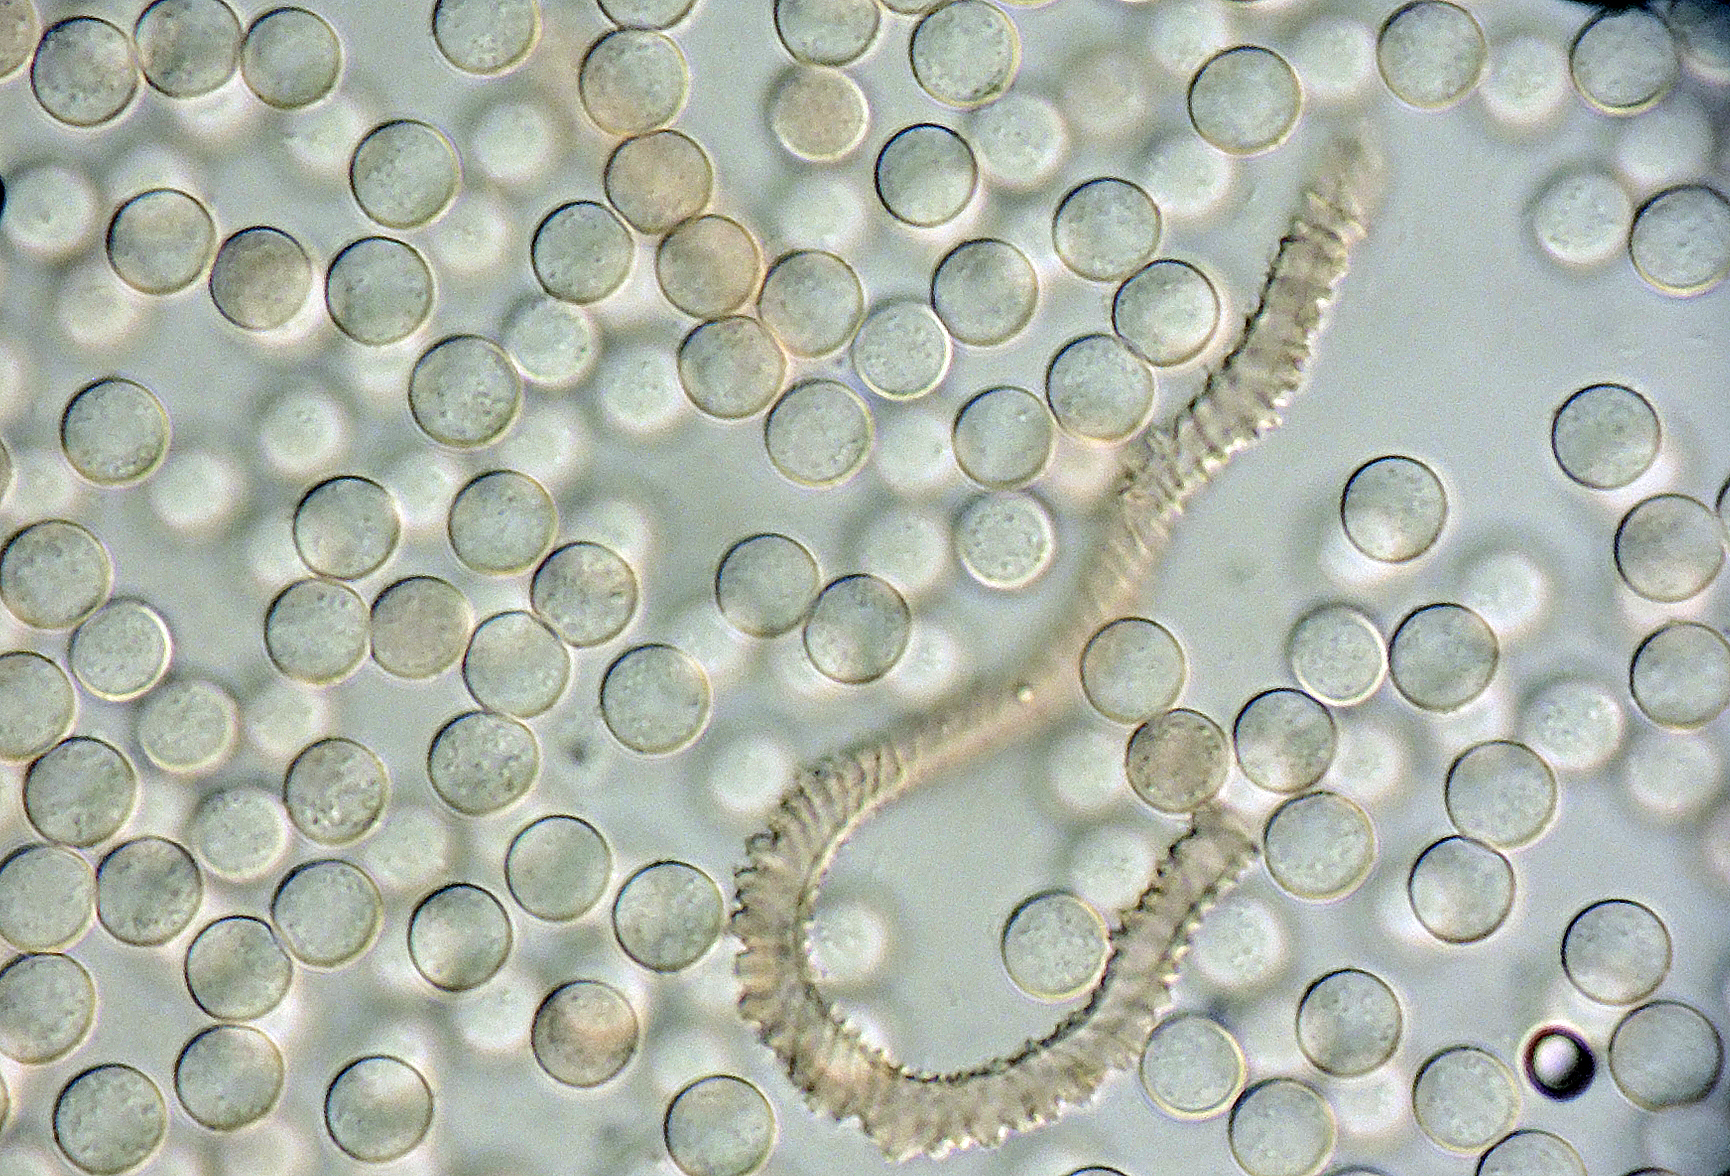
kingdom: Protozoa
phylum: Mycetozoa
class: Myxomycetes
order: Trichiales
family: Arcyriaceae
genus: Arcyria
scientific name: Arcyria stipata
